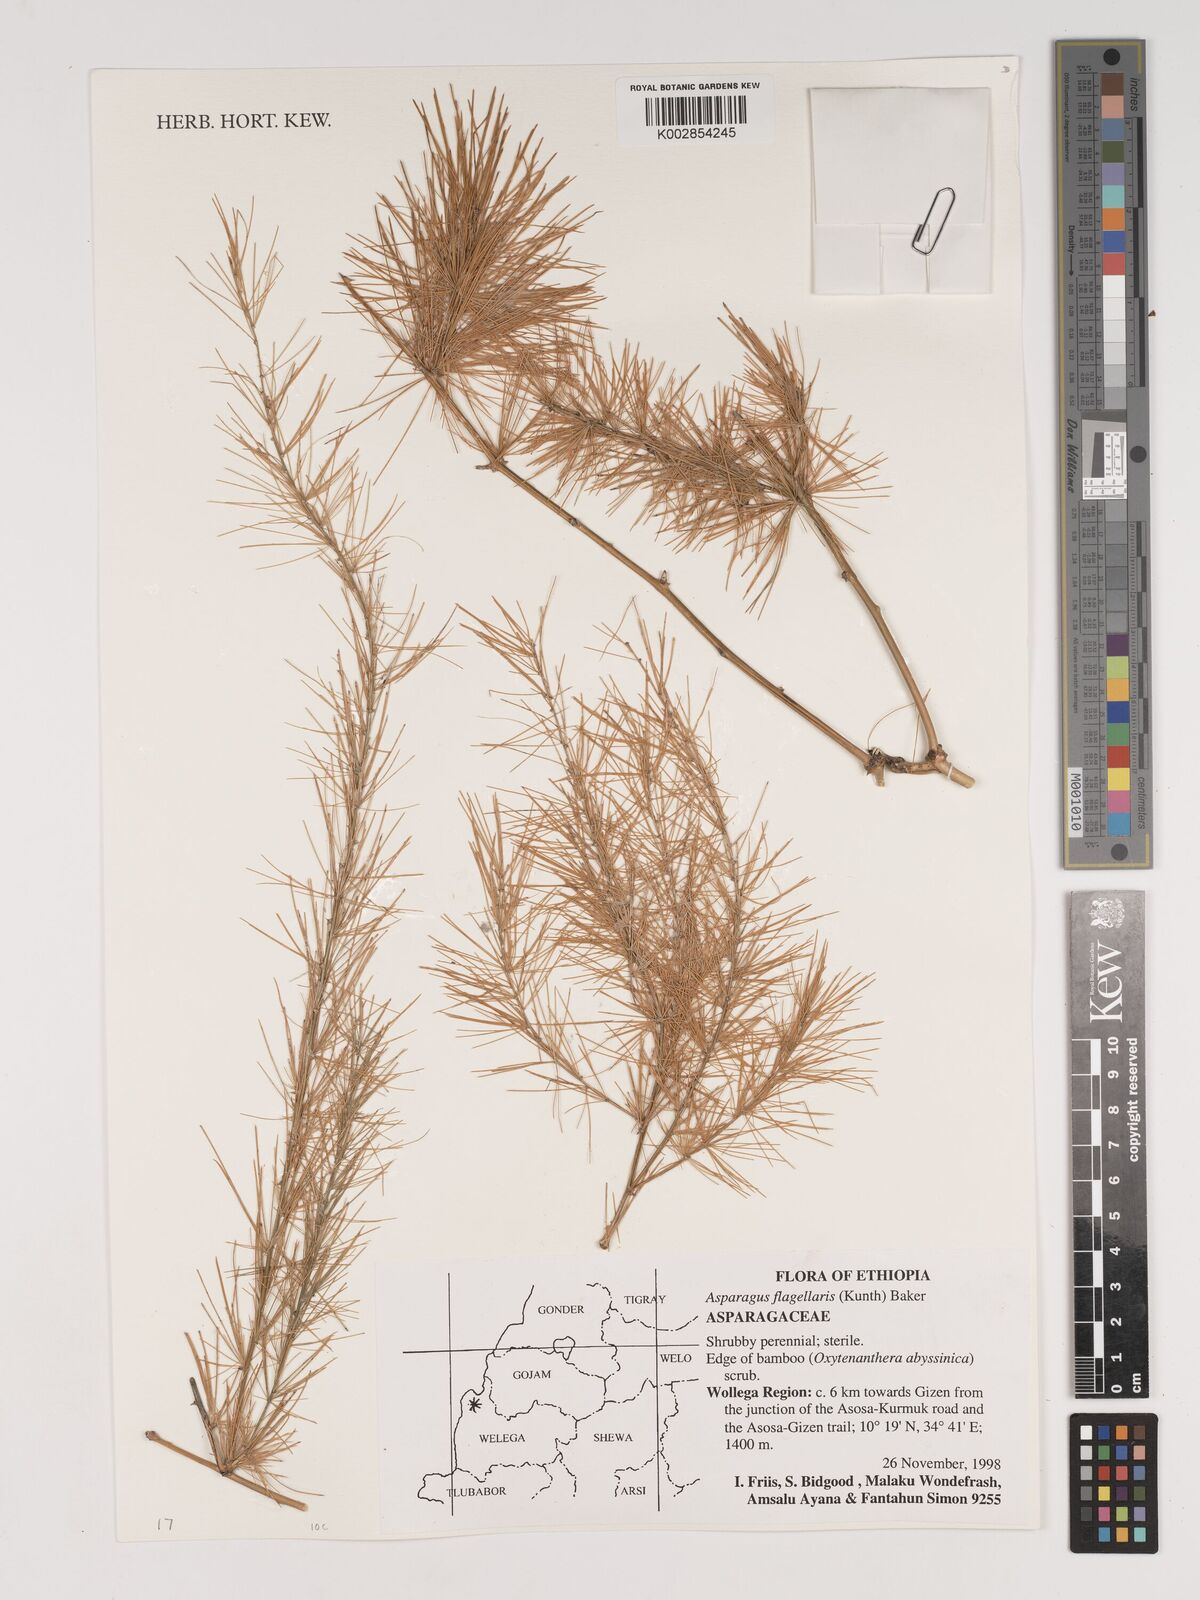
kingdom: Plantae
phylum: Tracheophyta
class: Liliopsida
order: Asparagales
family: Asparagaceae
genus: Asparagus
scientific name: Asparagus flagellaris
